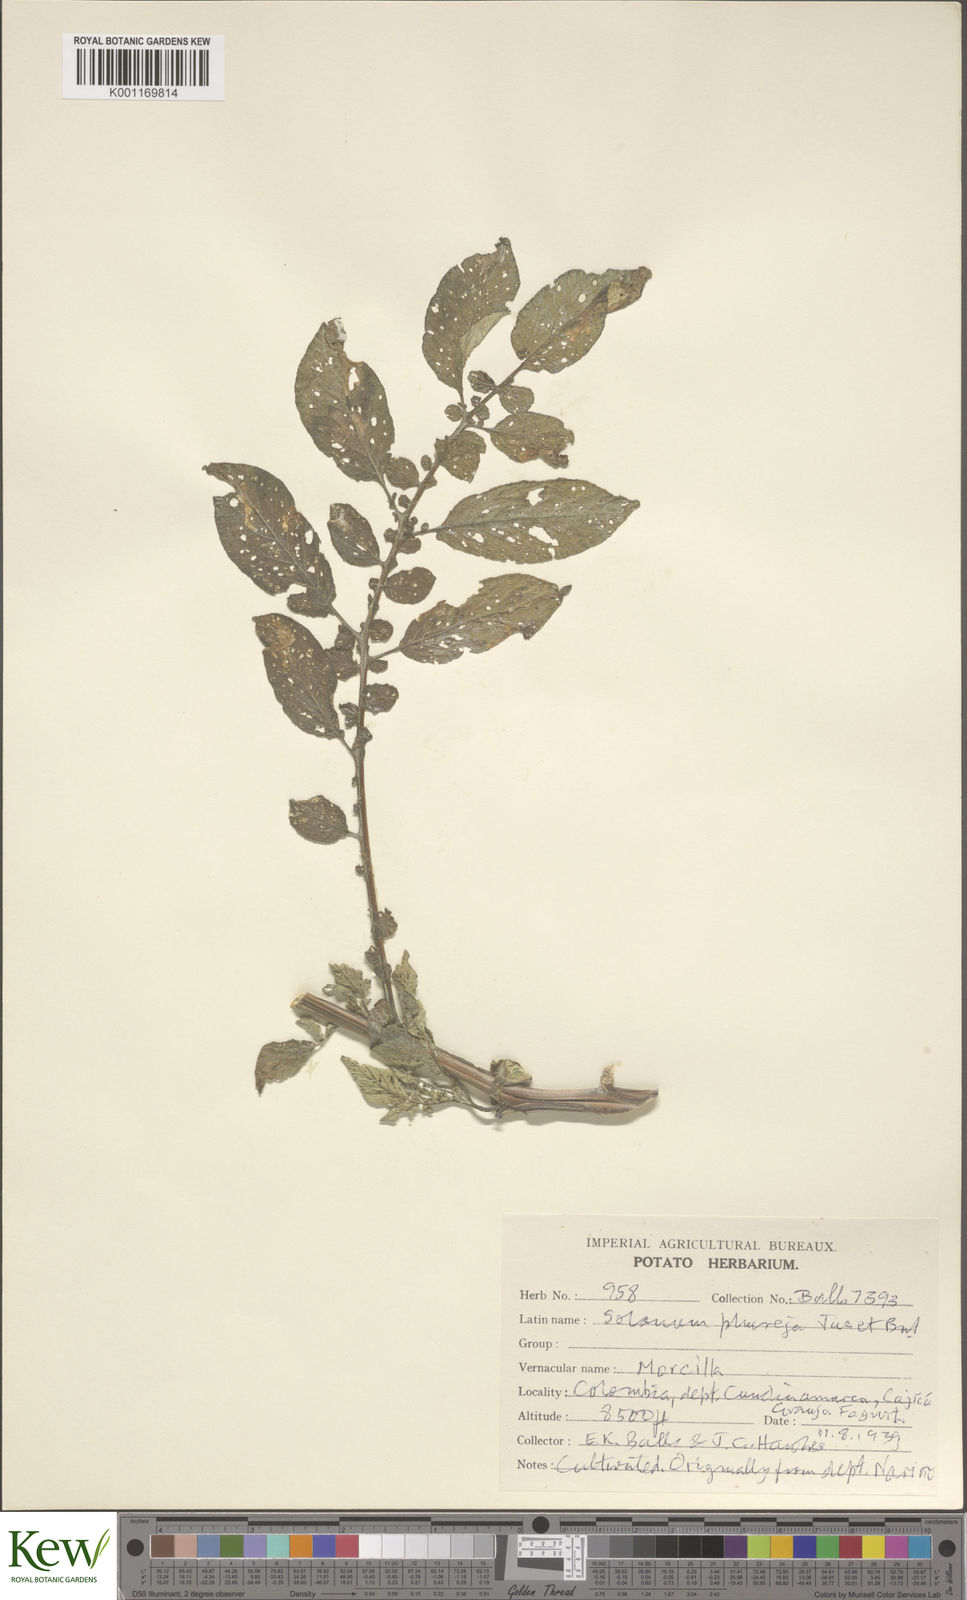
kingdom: Plantae
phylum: Tracheophyta
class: Magnoliopsida
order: Solanales
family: Solanaceae
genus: Solanum
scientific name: Solanum tuberosum
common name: Potato
